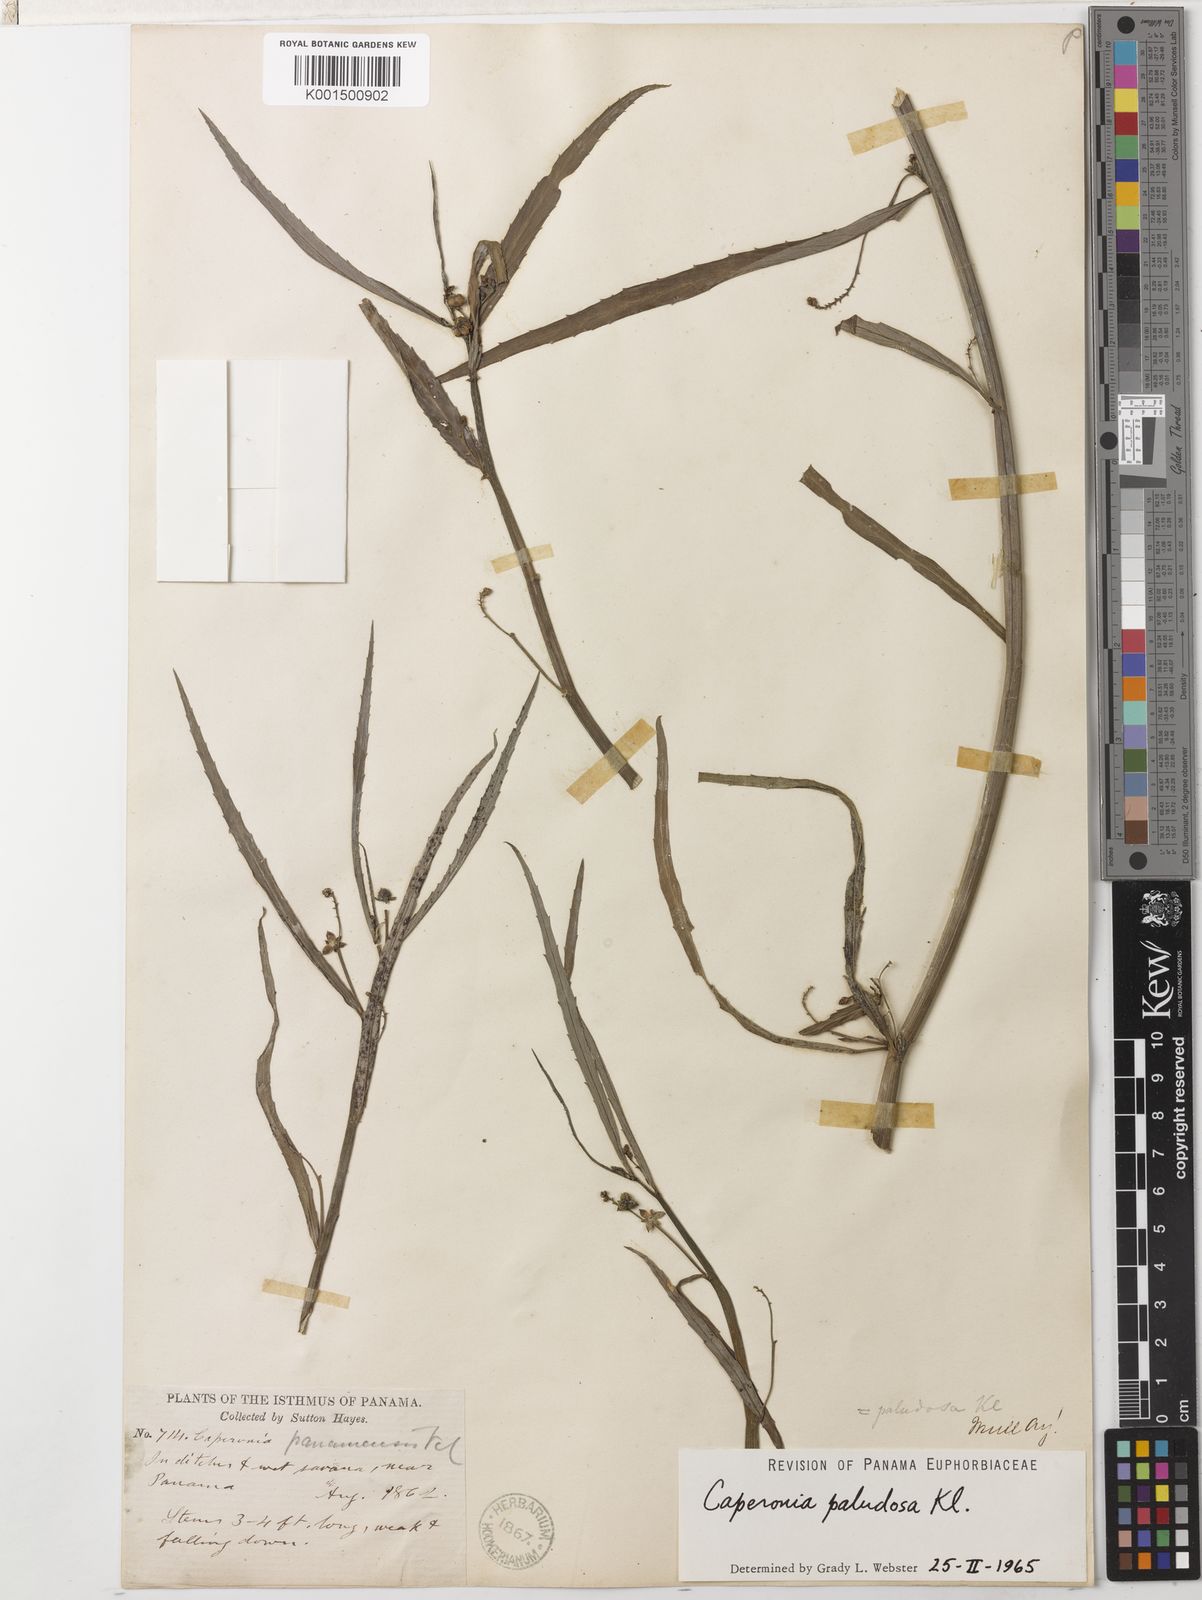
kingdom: Plantae
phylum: Tracheophyta
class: Magnoliopsida
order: Malpighiales
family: Euphorbiaceae
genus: Caperonia
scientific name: Caperonia castaneifolia
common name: Chestnutleaf false croton
